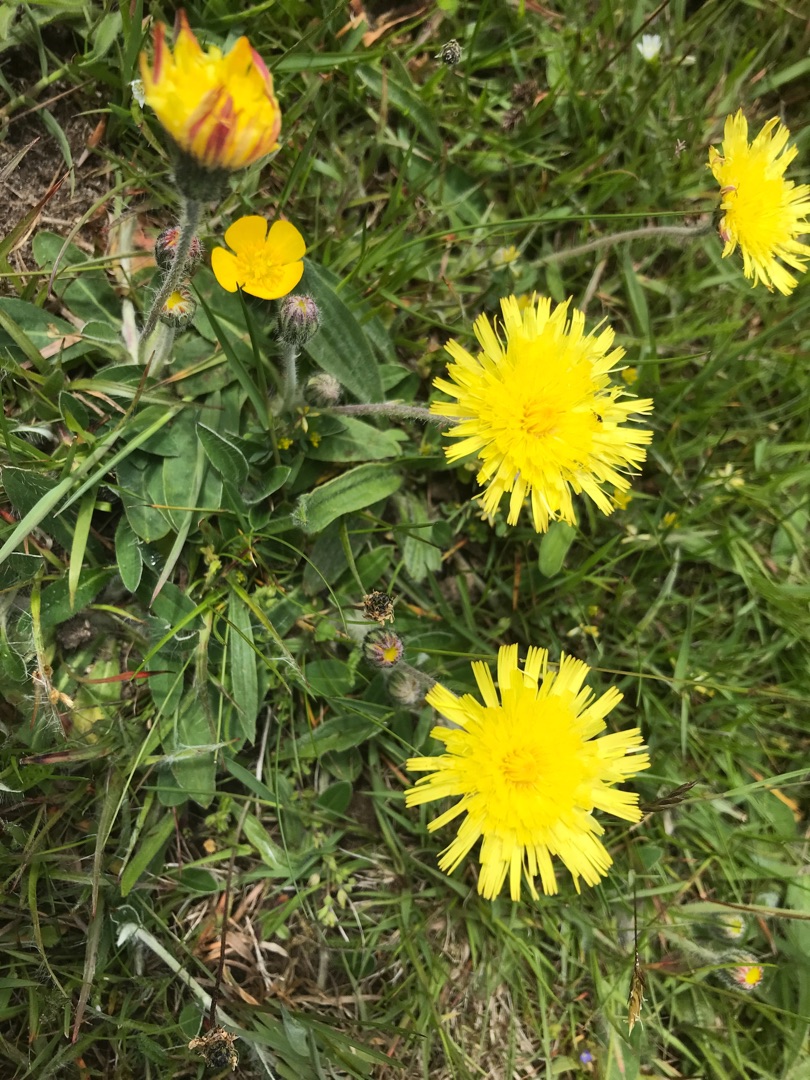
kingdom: Plantae
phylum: Tracheophyta
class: Magnoliopsida
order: Asterales
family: Asteraceae
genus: Pilosella
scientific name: Pilosella officinarum
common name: Håret høgeurt
